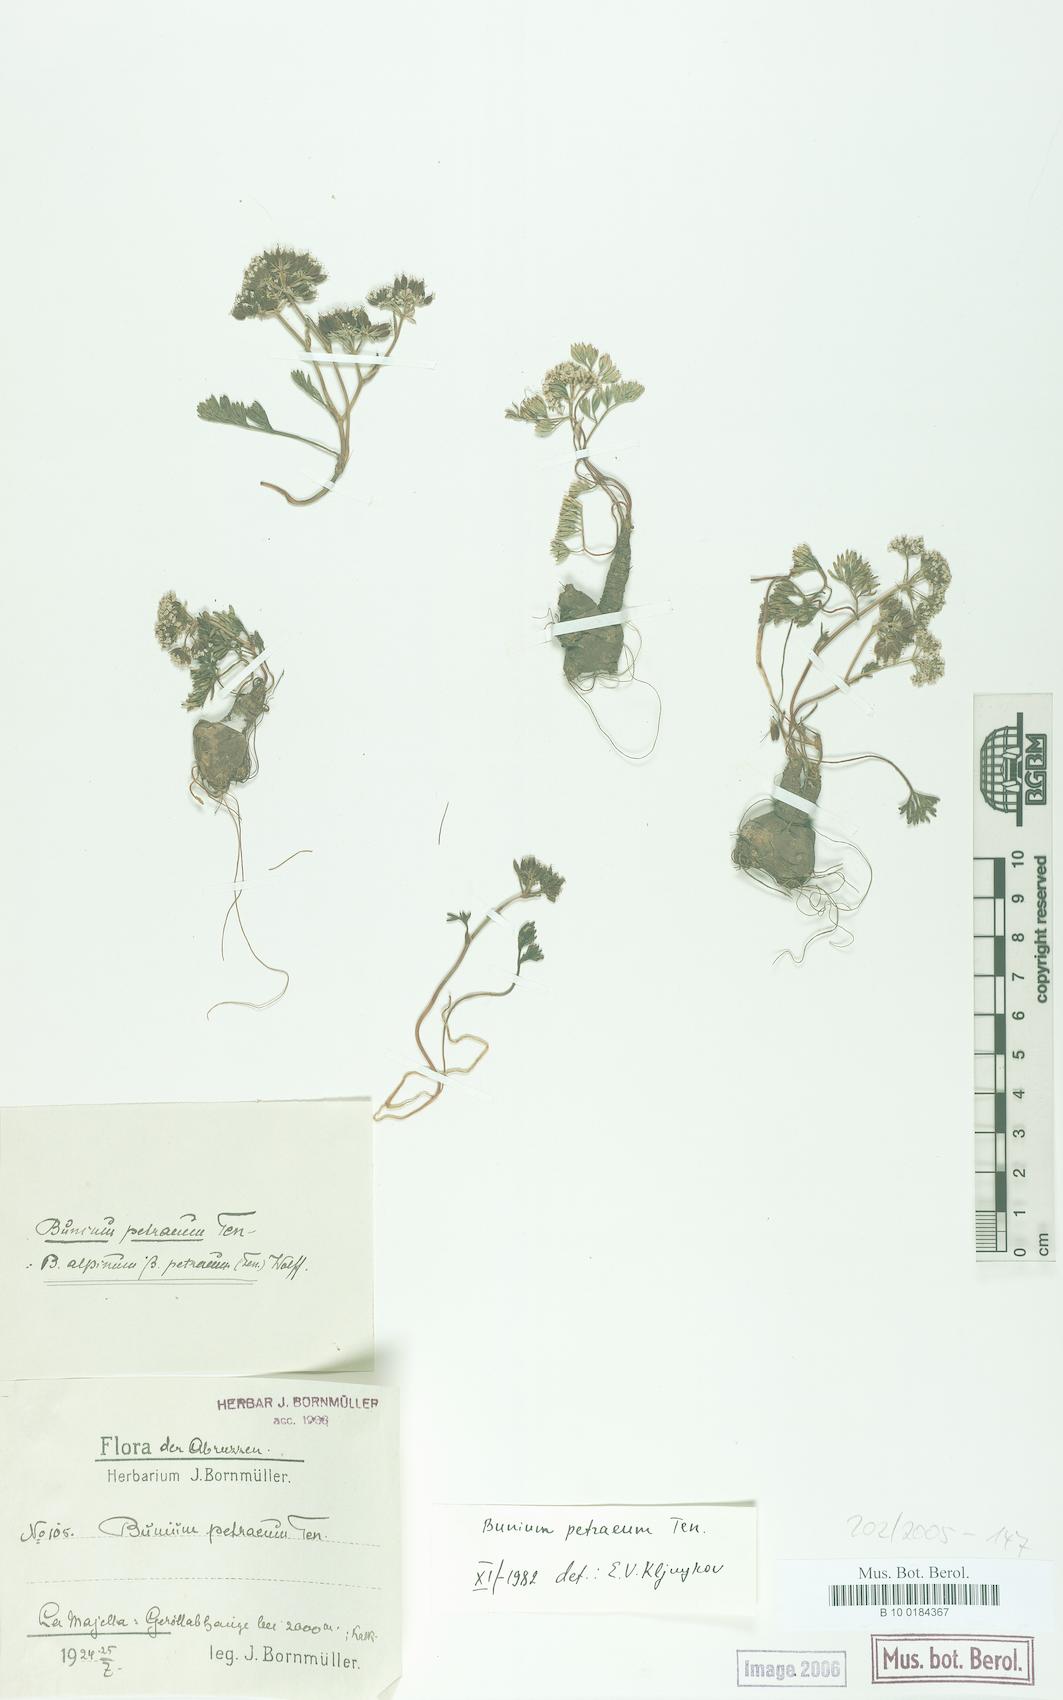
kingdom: Plantae
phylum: Tracheophyta
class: Magnoliopsida
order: Apiales
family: Apiaceae
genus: Bunium
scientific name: Bunium alpinum
